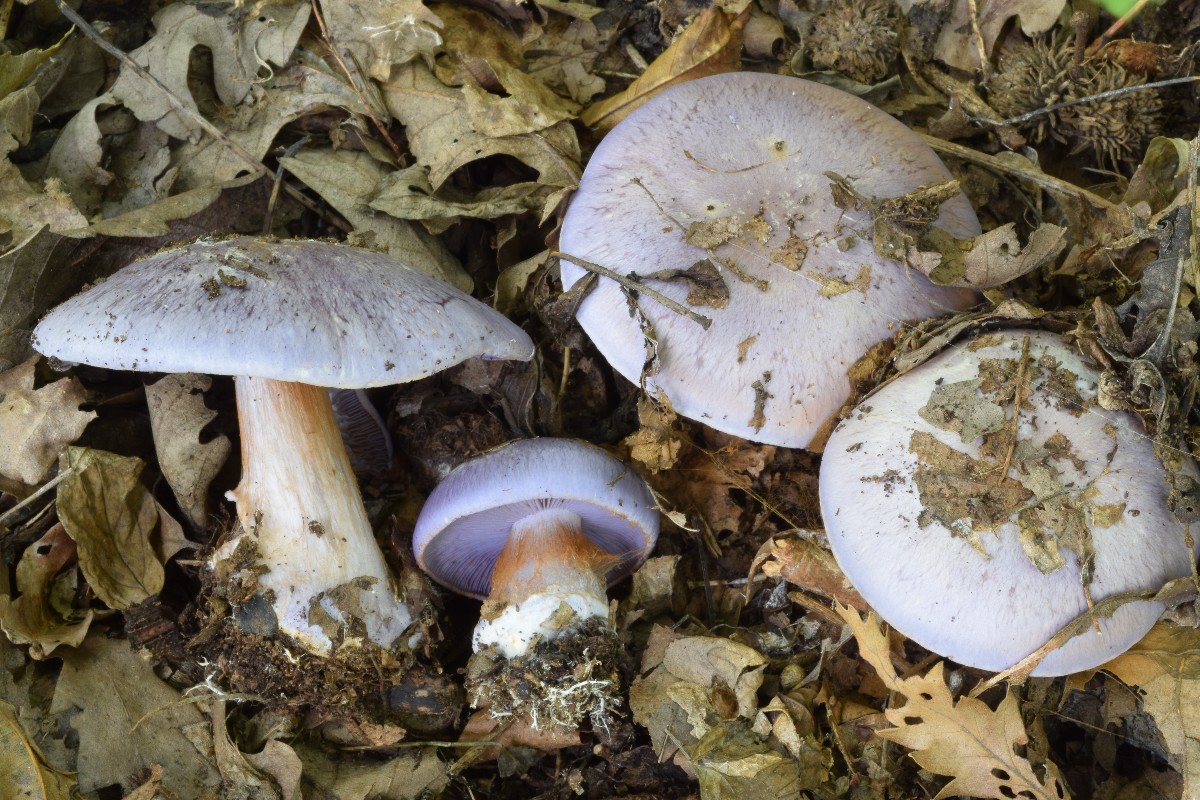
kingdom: Fungi
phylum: Basidiomycota
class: Agaricomycetes
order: Agaricales
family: Cortinariaceae
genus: Phlegmacium
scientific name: Phlegmacium eucaeruleum
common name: indigo-slørhat
